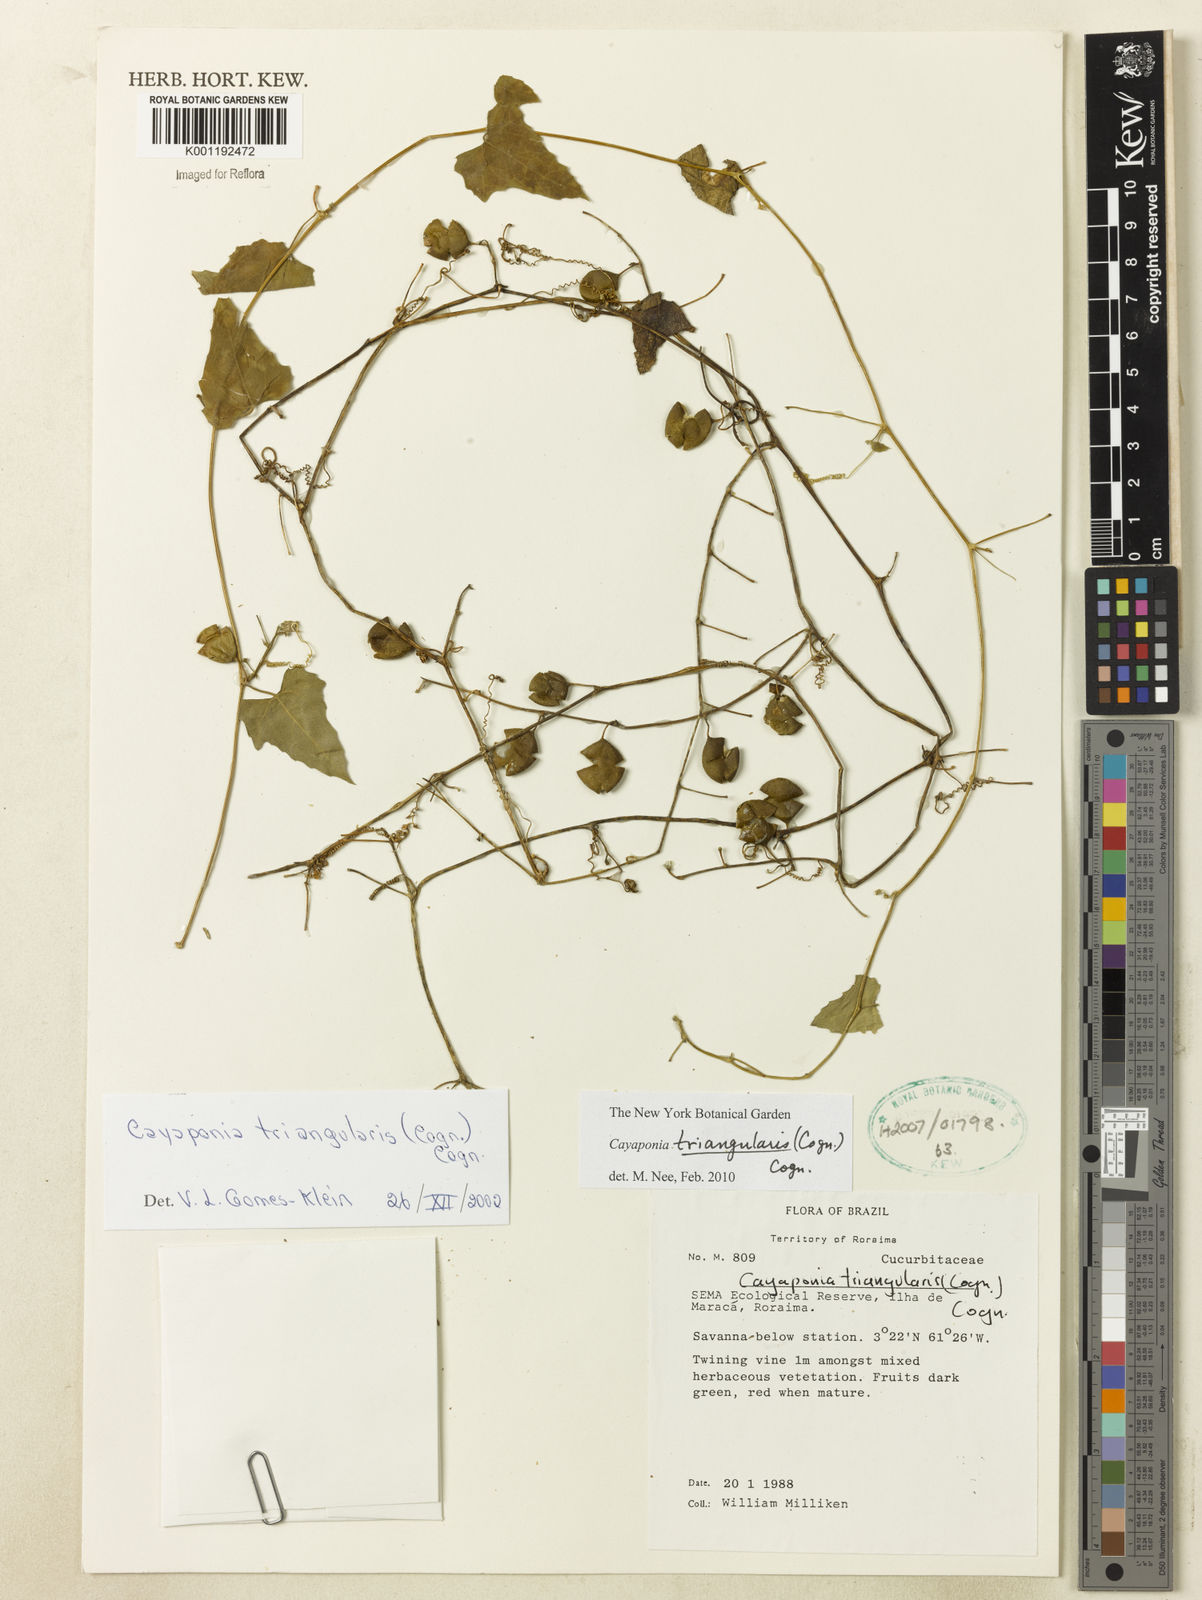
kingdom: Plantae
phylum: Tracheophyta
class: Magnoliopsida
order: Cucurbitales
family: Cucurbitaceae
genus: Cayaponia
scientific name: Cayaponia triangularis
